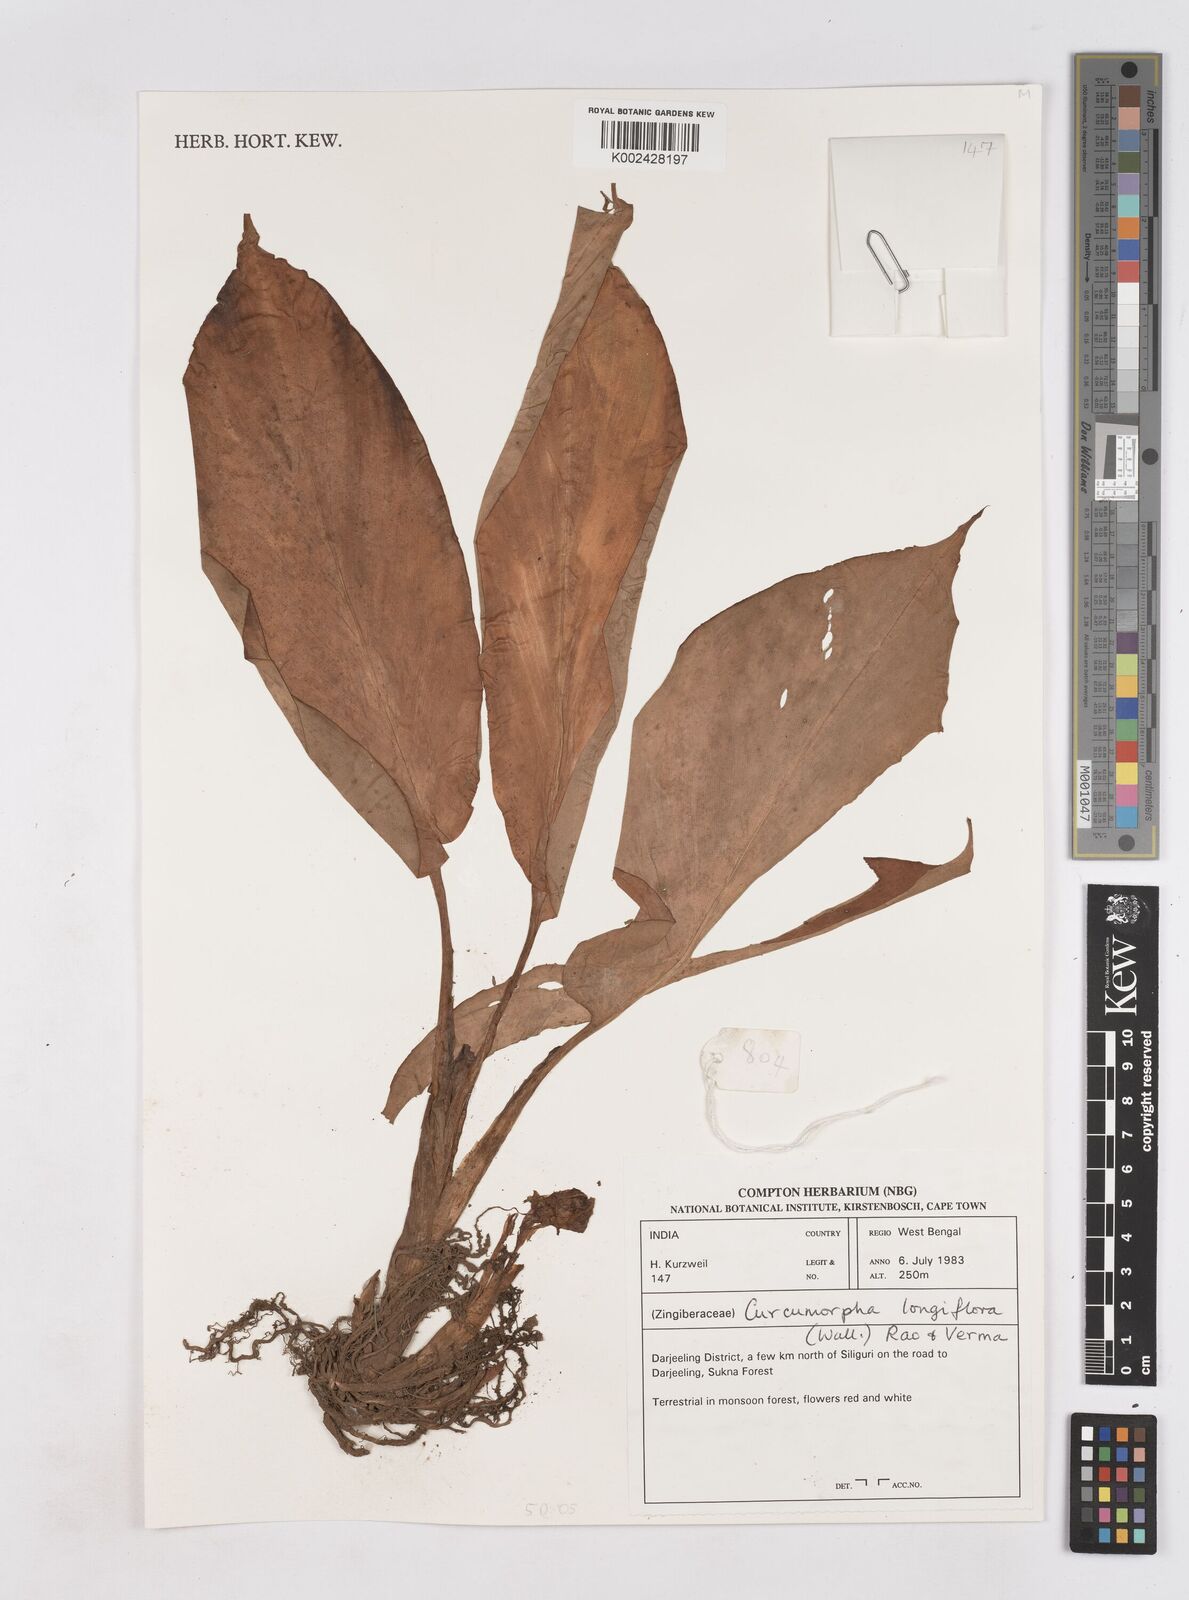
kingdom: Plantae
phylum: Tracheophyta
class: Liliopsida
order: Zingiberales
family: Zingiberaceae
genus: Boesenbergia
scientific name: Boesenbergia longiflora
